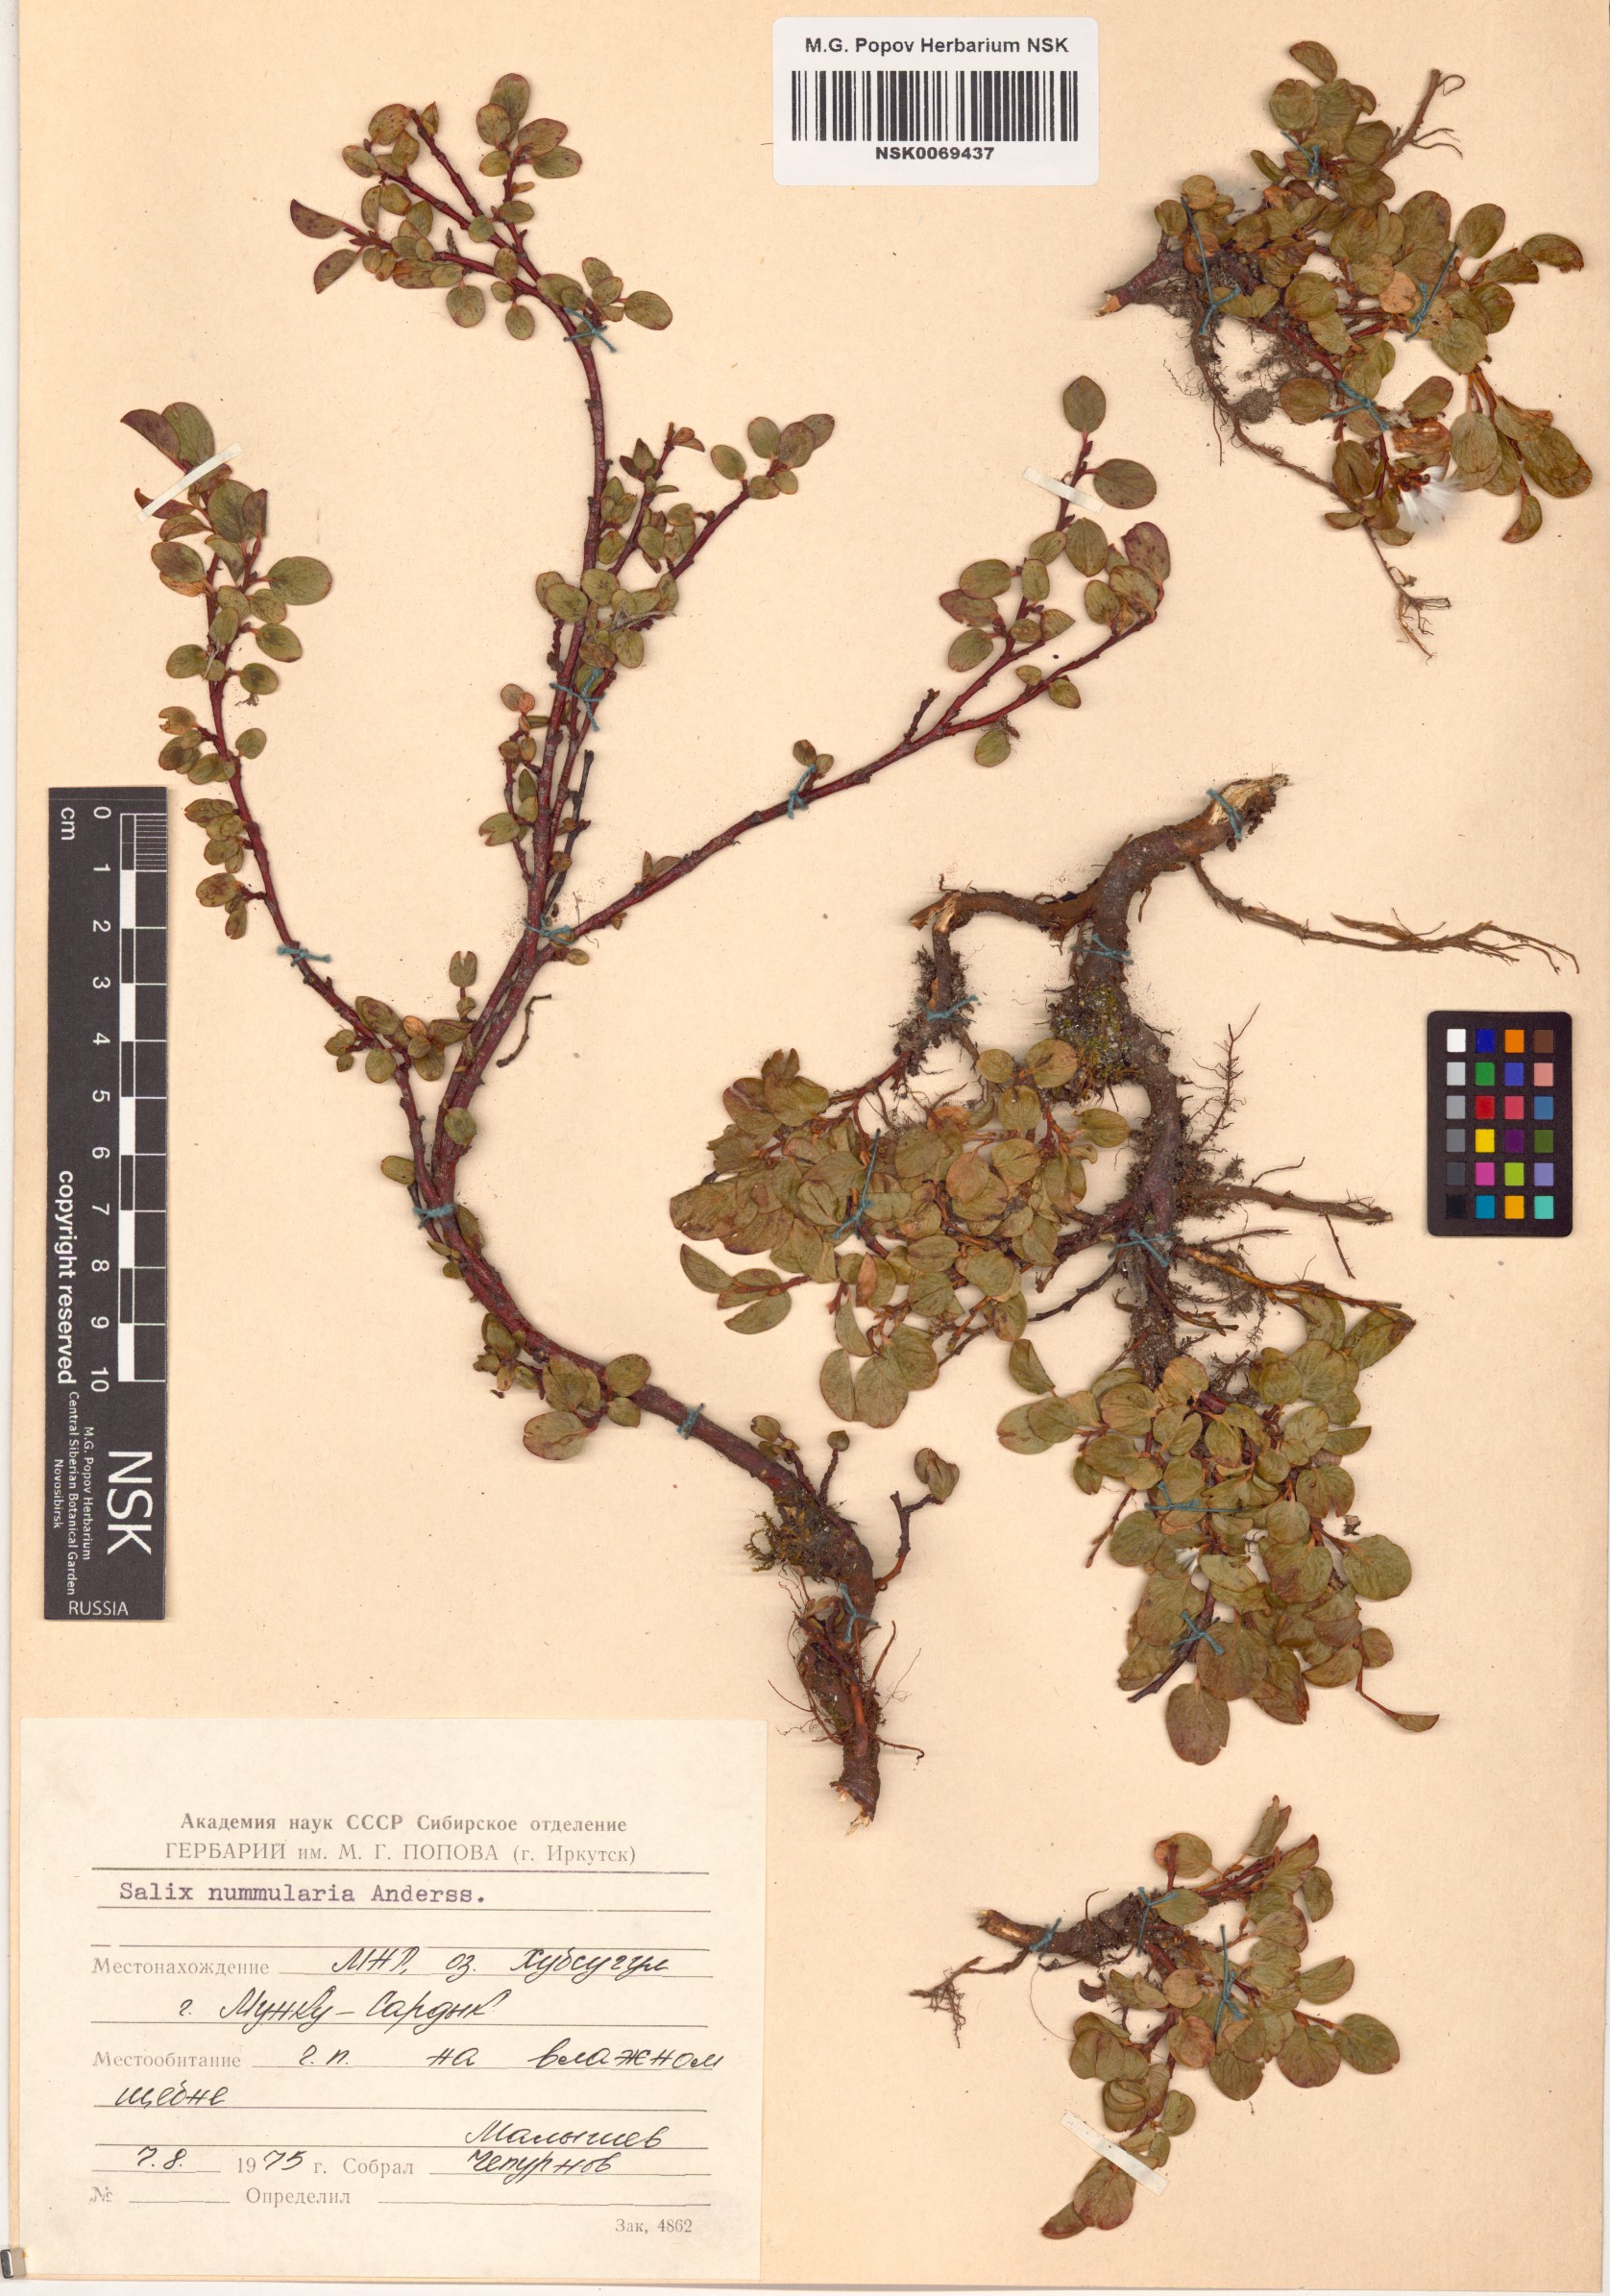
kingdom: Plantae
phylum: Tracheophyta
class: Magnoliopsida
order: Malpighiales
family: Salicaceae
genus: Salix
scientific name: Salix nummularia
